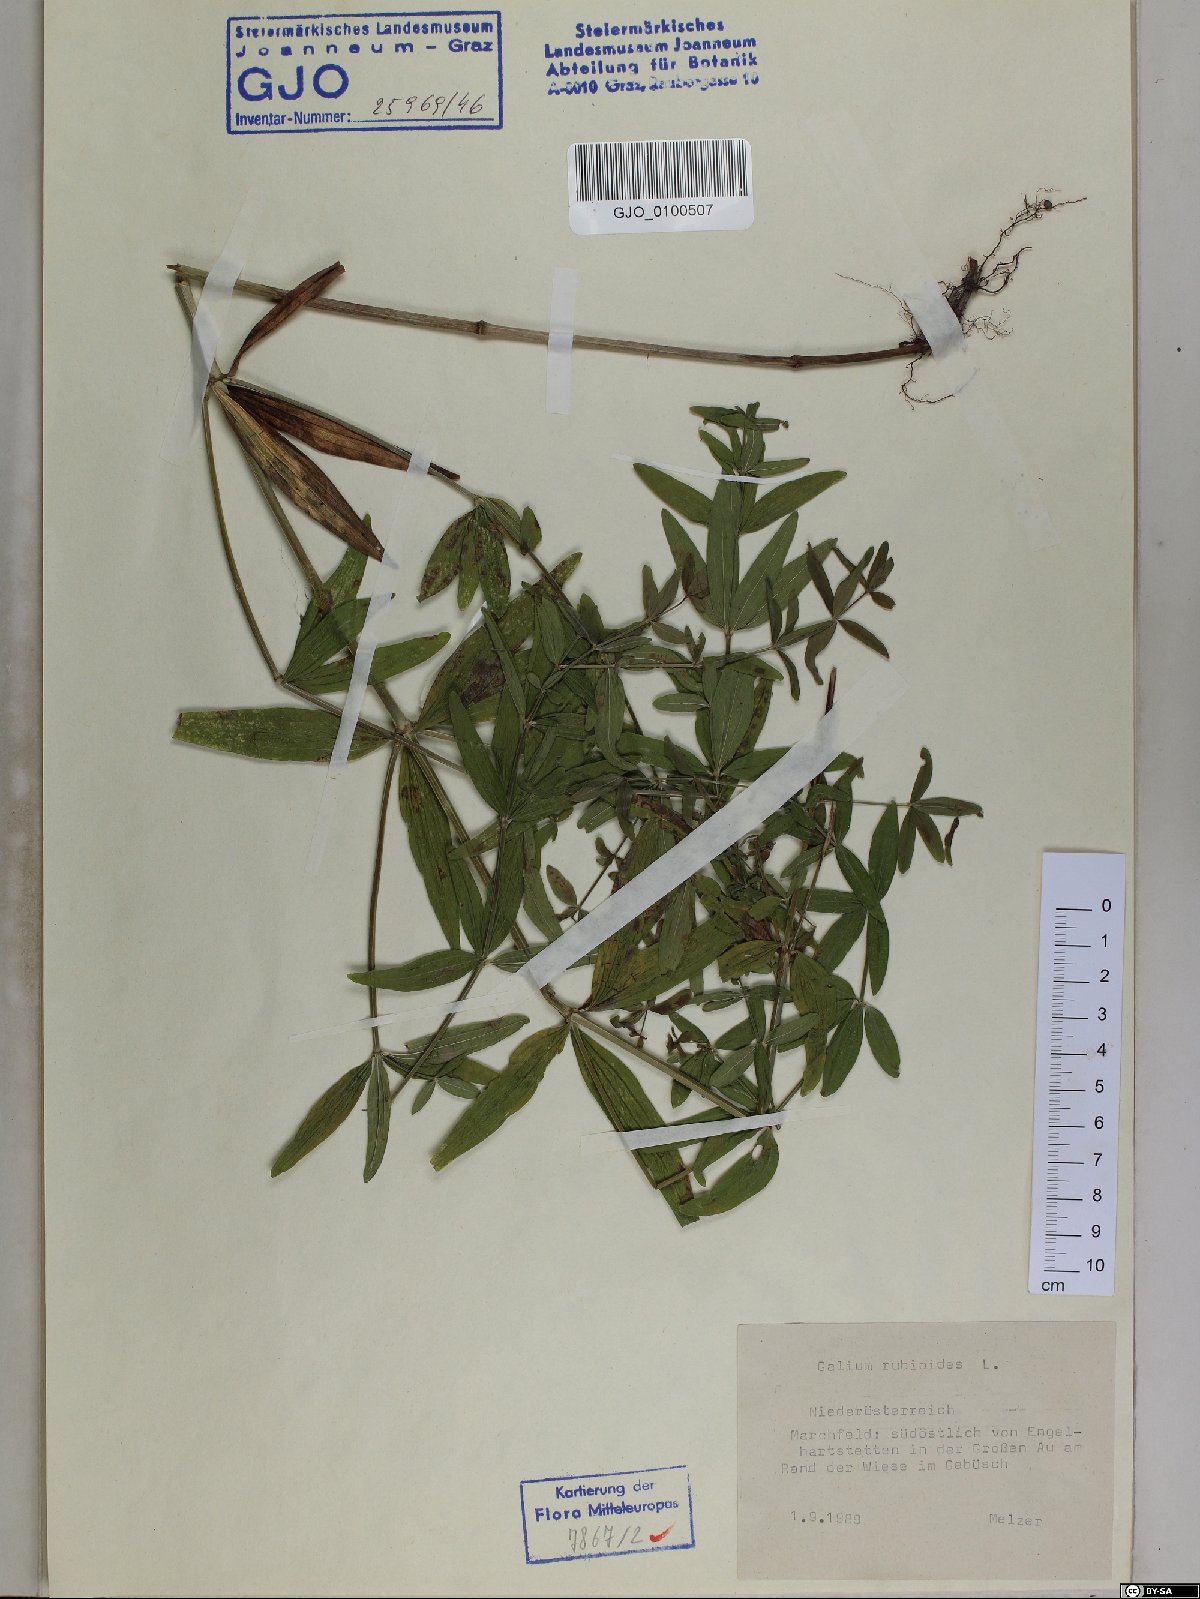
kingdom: Plantae
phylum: Tracheophyta
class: Magnoliopsida
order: Gentianales
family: Rubiaceae
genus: Galium
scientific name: Galium rubioides
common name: European bedstraw
